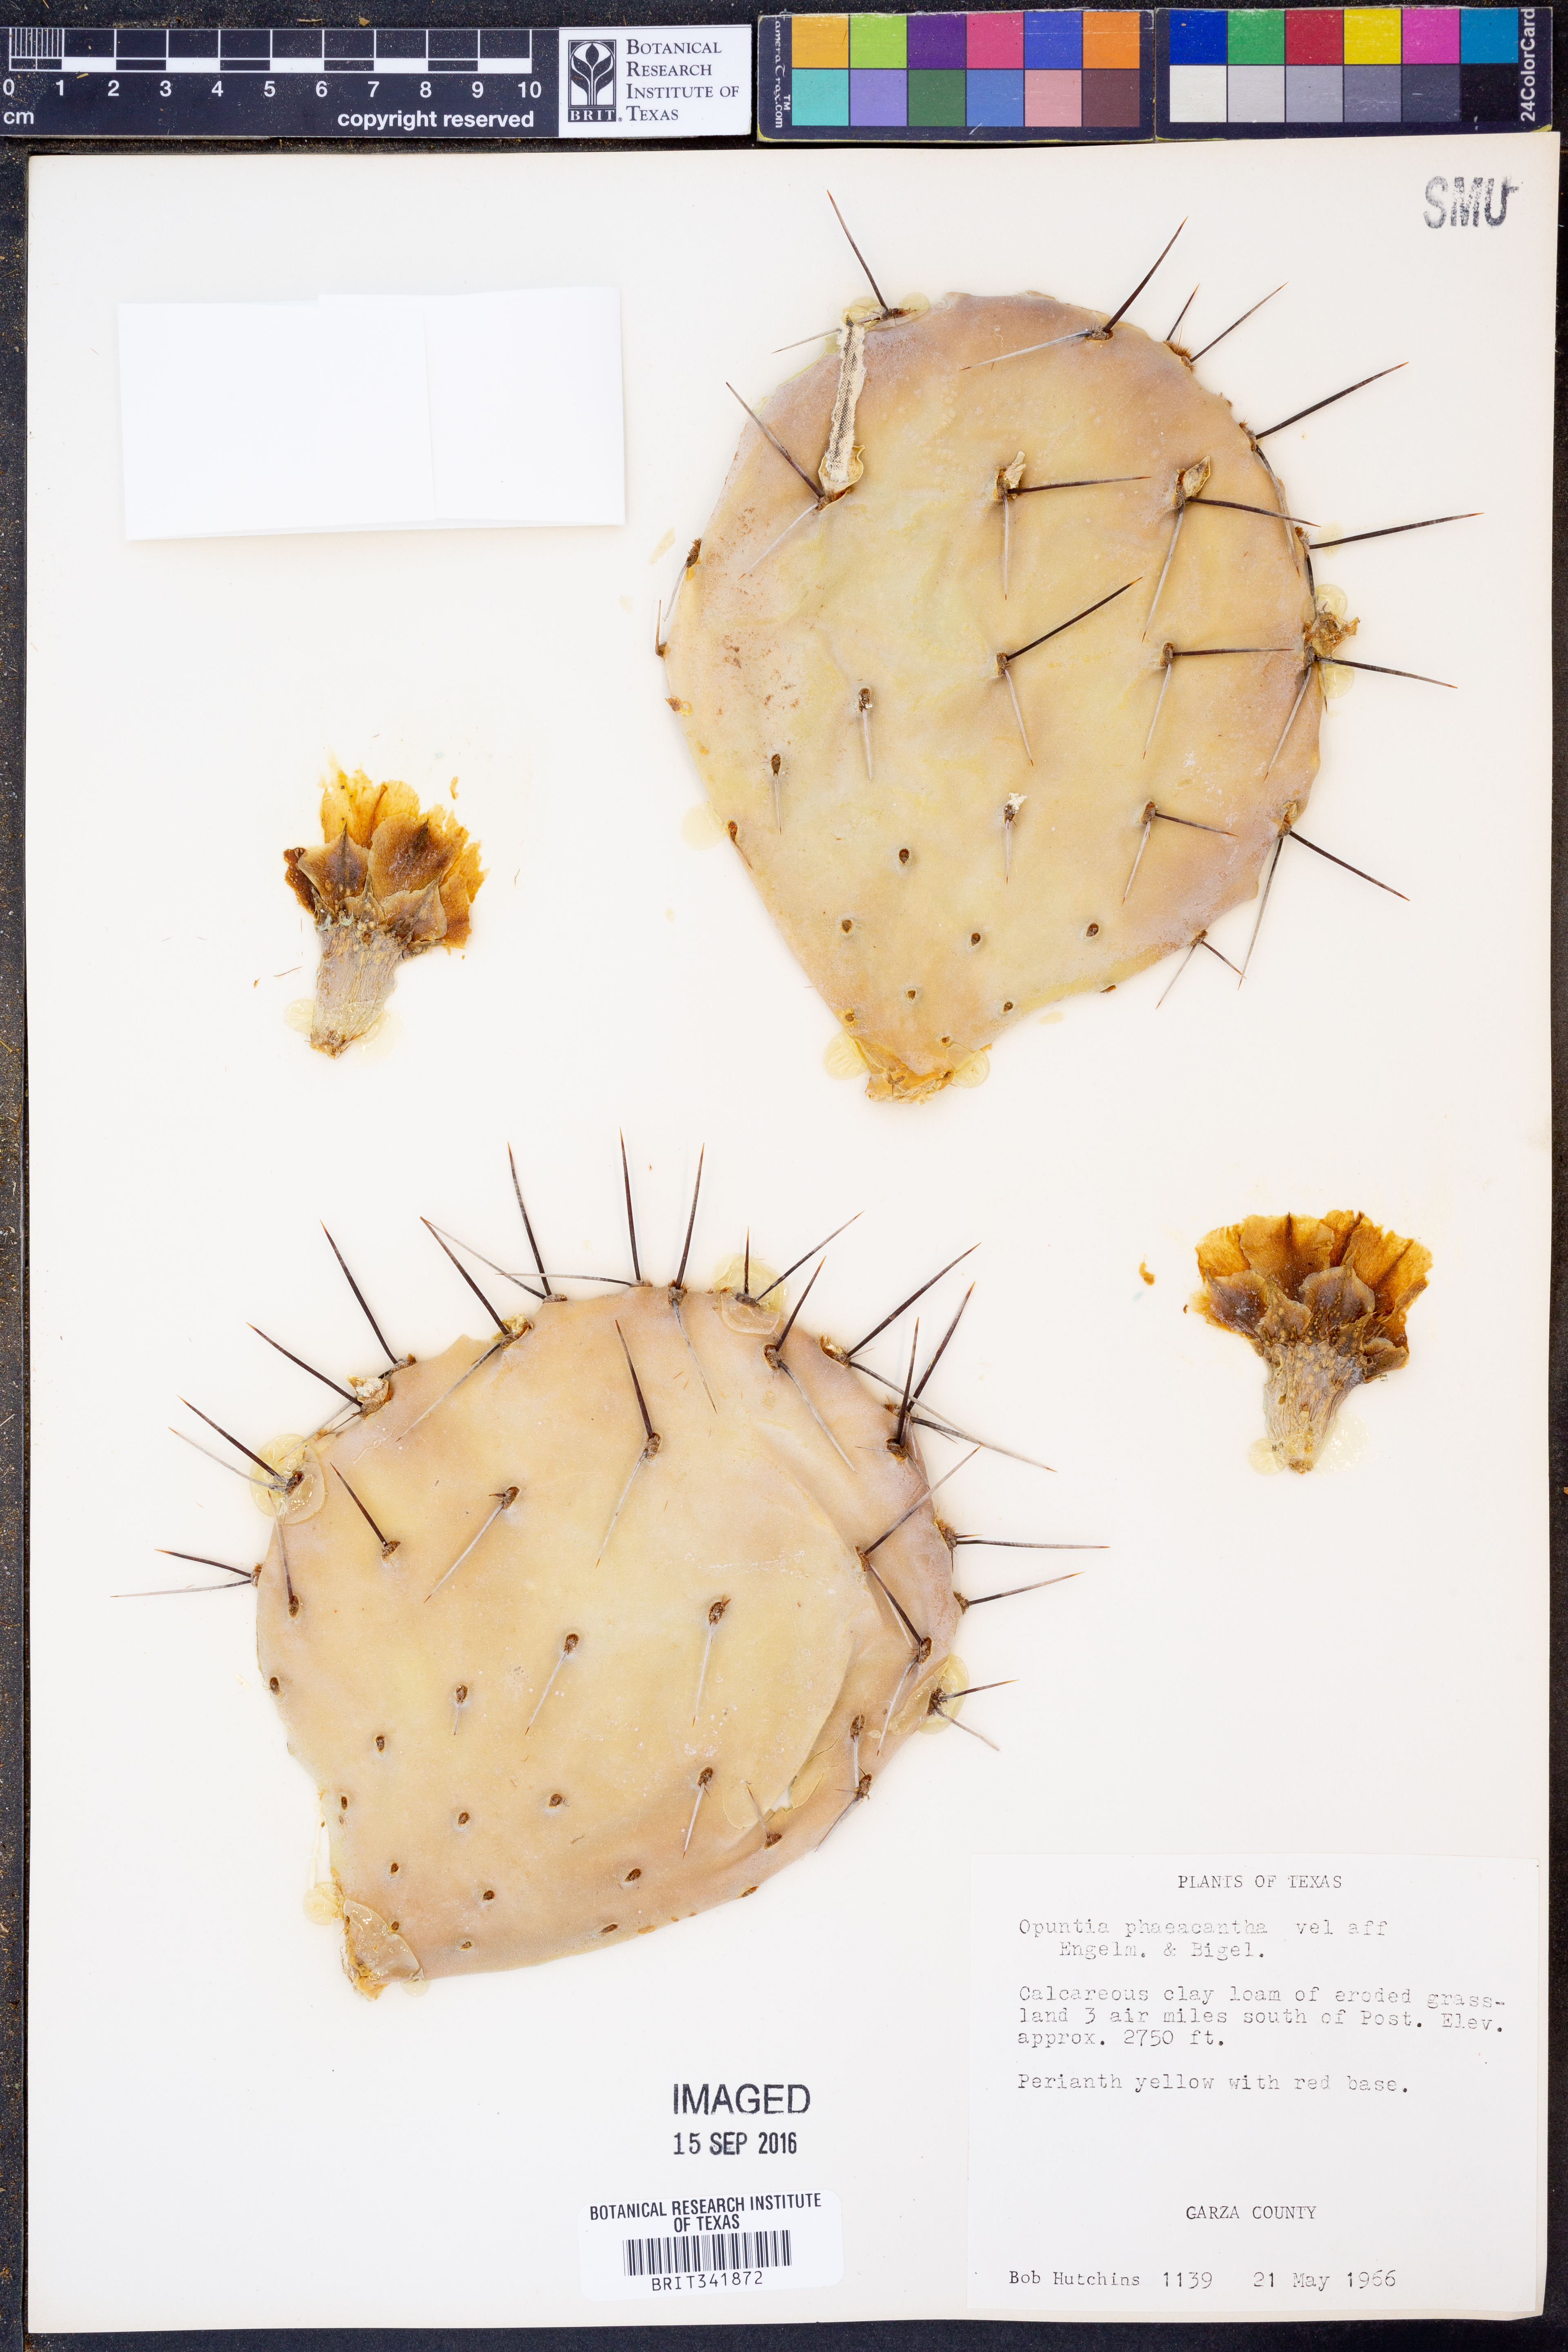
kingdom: Plantae
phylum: Tracheophyta
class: Magnoliopsida
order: Caryophyllales
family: Cactaceae
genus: Opuntia
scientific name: Opuntia phaeacantha
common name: New mexico prickly-pear
